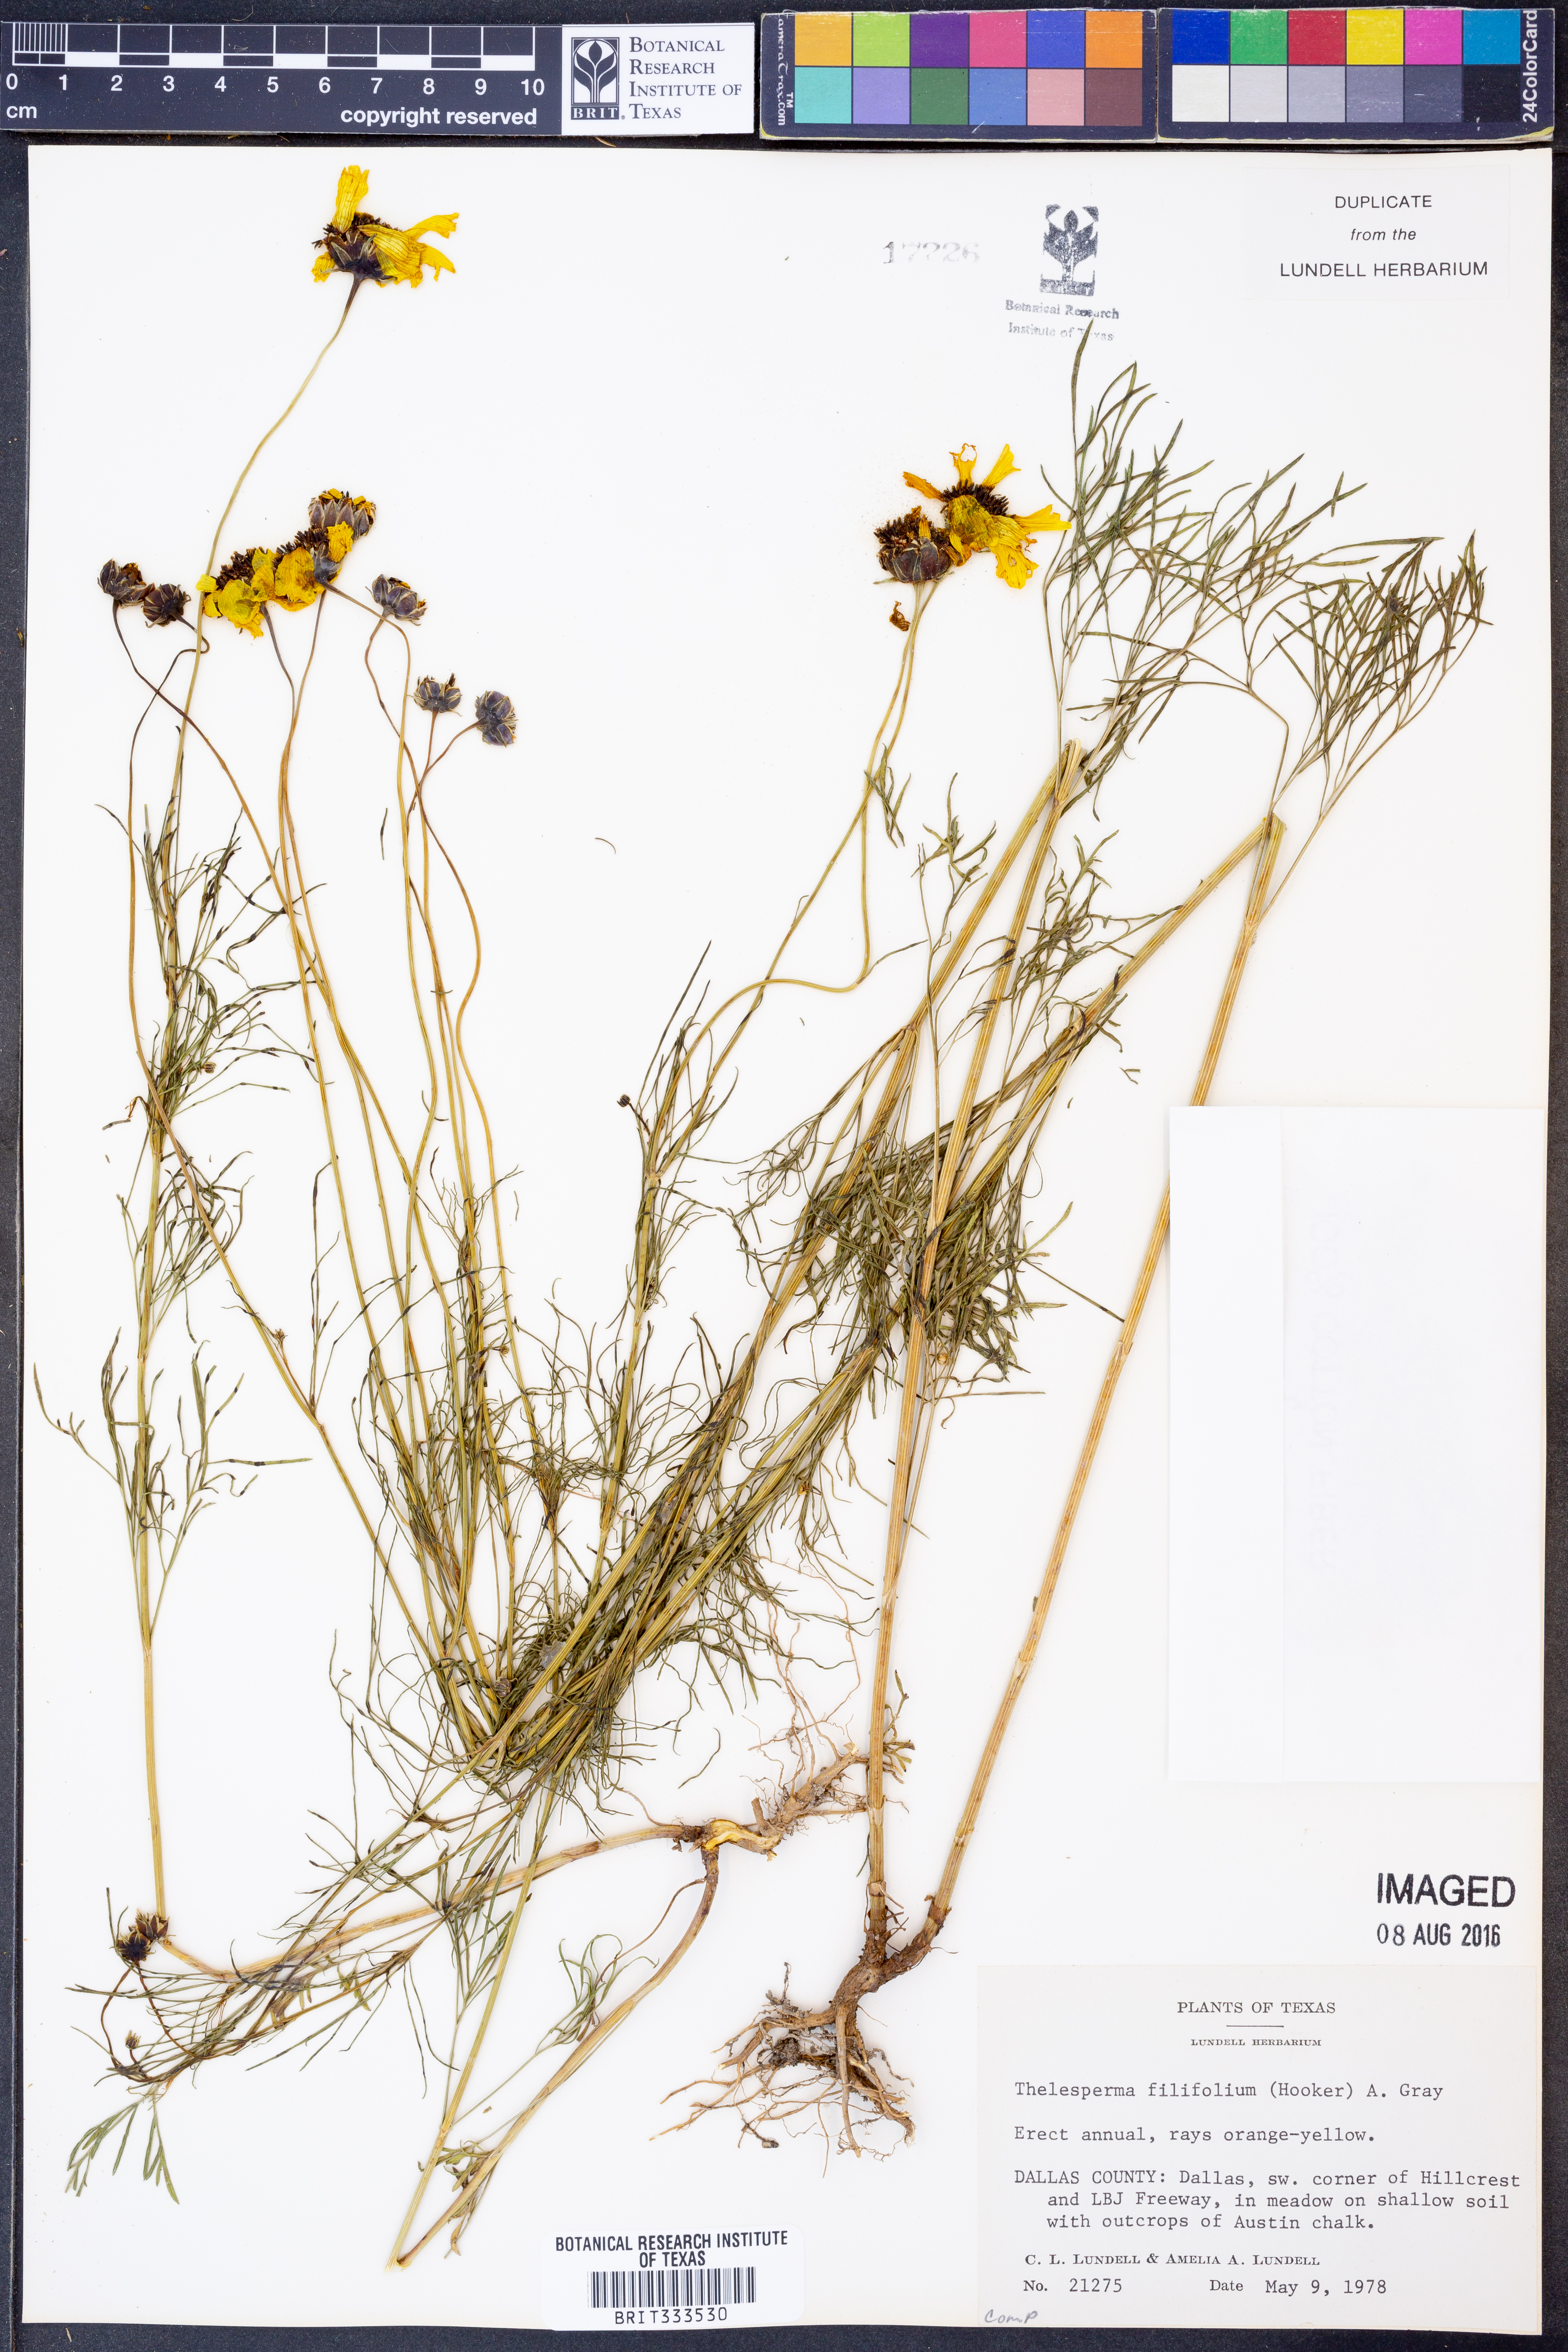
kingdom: Plantae
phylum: Tracheophyta
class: Magnoliopsida
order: Asterales
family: Asteraceae
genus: Thelesperma
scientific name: Thelesperma filifolium
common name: Stiff greenthread
